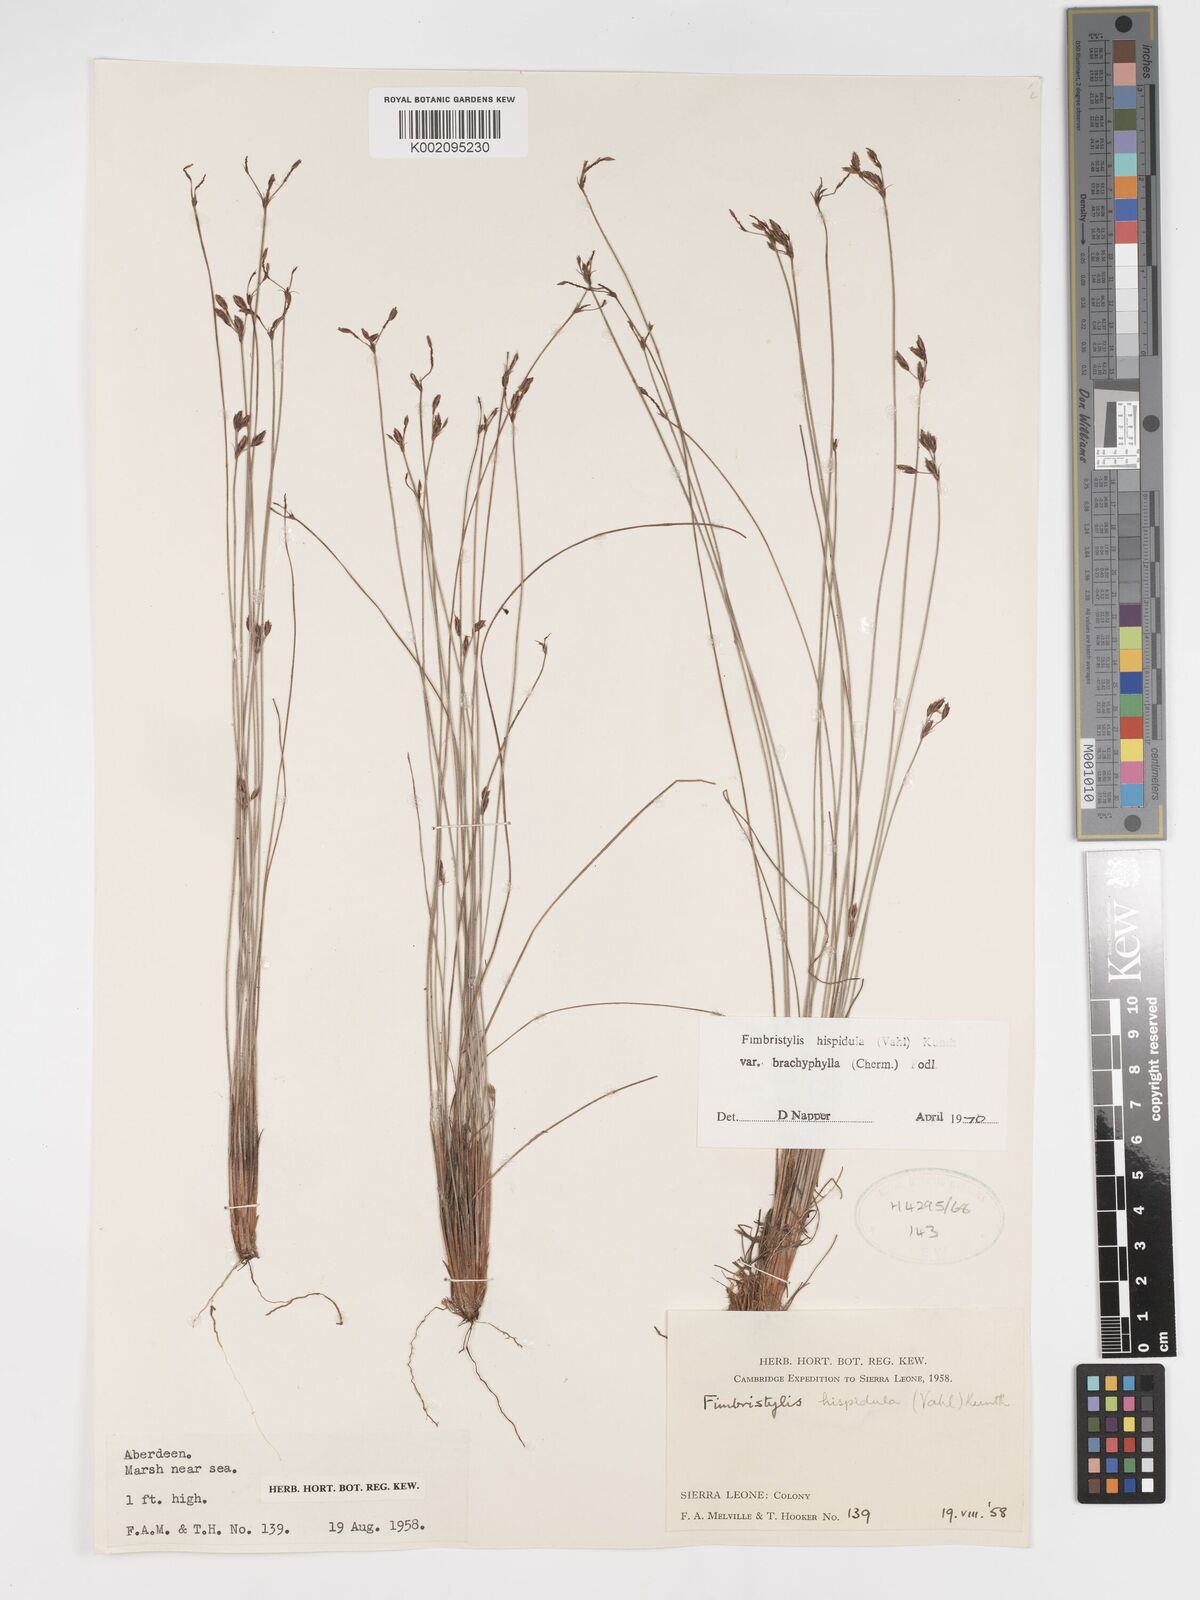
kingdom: Plantae
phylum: Tracheophyta
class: Liliopsida
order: Poales
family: Cyperaceae
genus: Bulbostylis
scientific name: Bulbostylis hispidula
